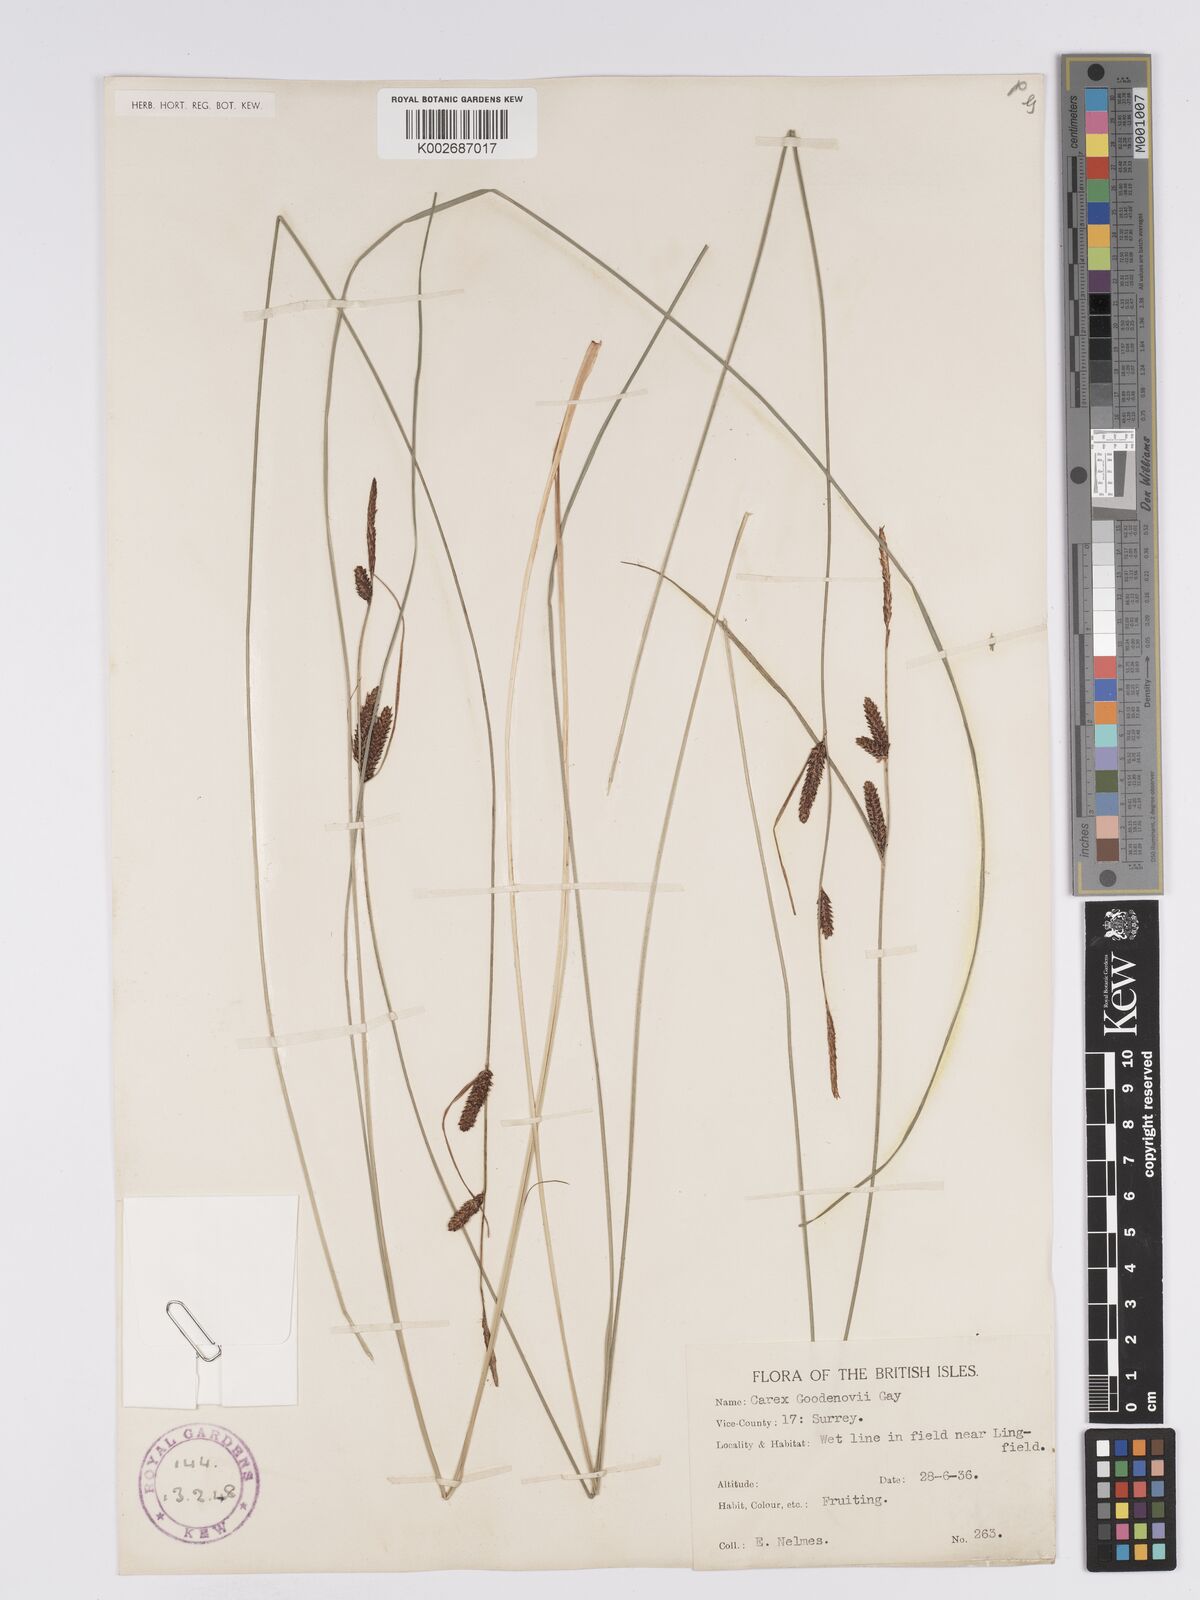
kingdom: Plantae
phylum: Tracheophyta
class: Liliopsida
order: Poales
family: Cyperaceae
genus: Carex
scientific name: Carex nigra
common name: Common sedge
